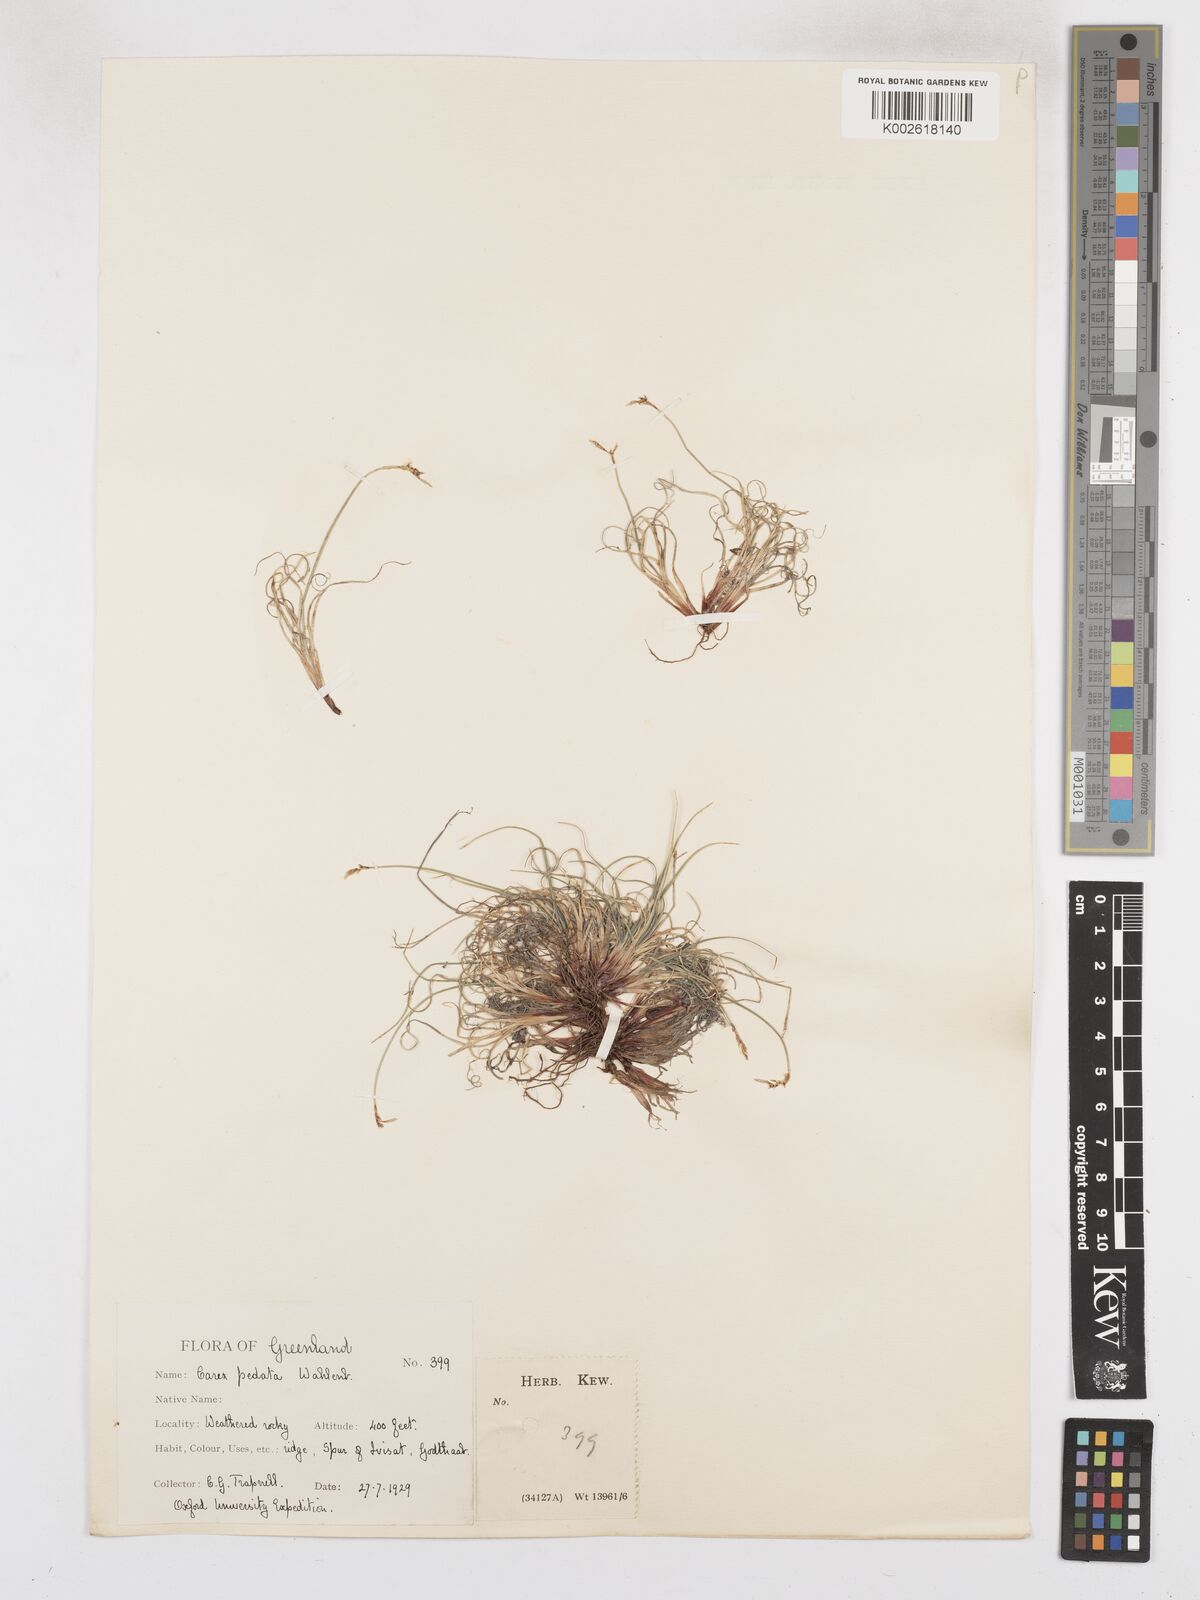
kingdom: Plantae
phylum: Tracheophyta
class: Liliopsida
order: Poales
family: Cyperaceae
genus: Carex
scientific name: Carex glacialis
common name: Newfoundland sedge
